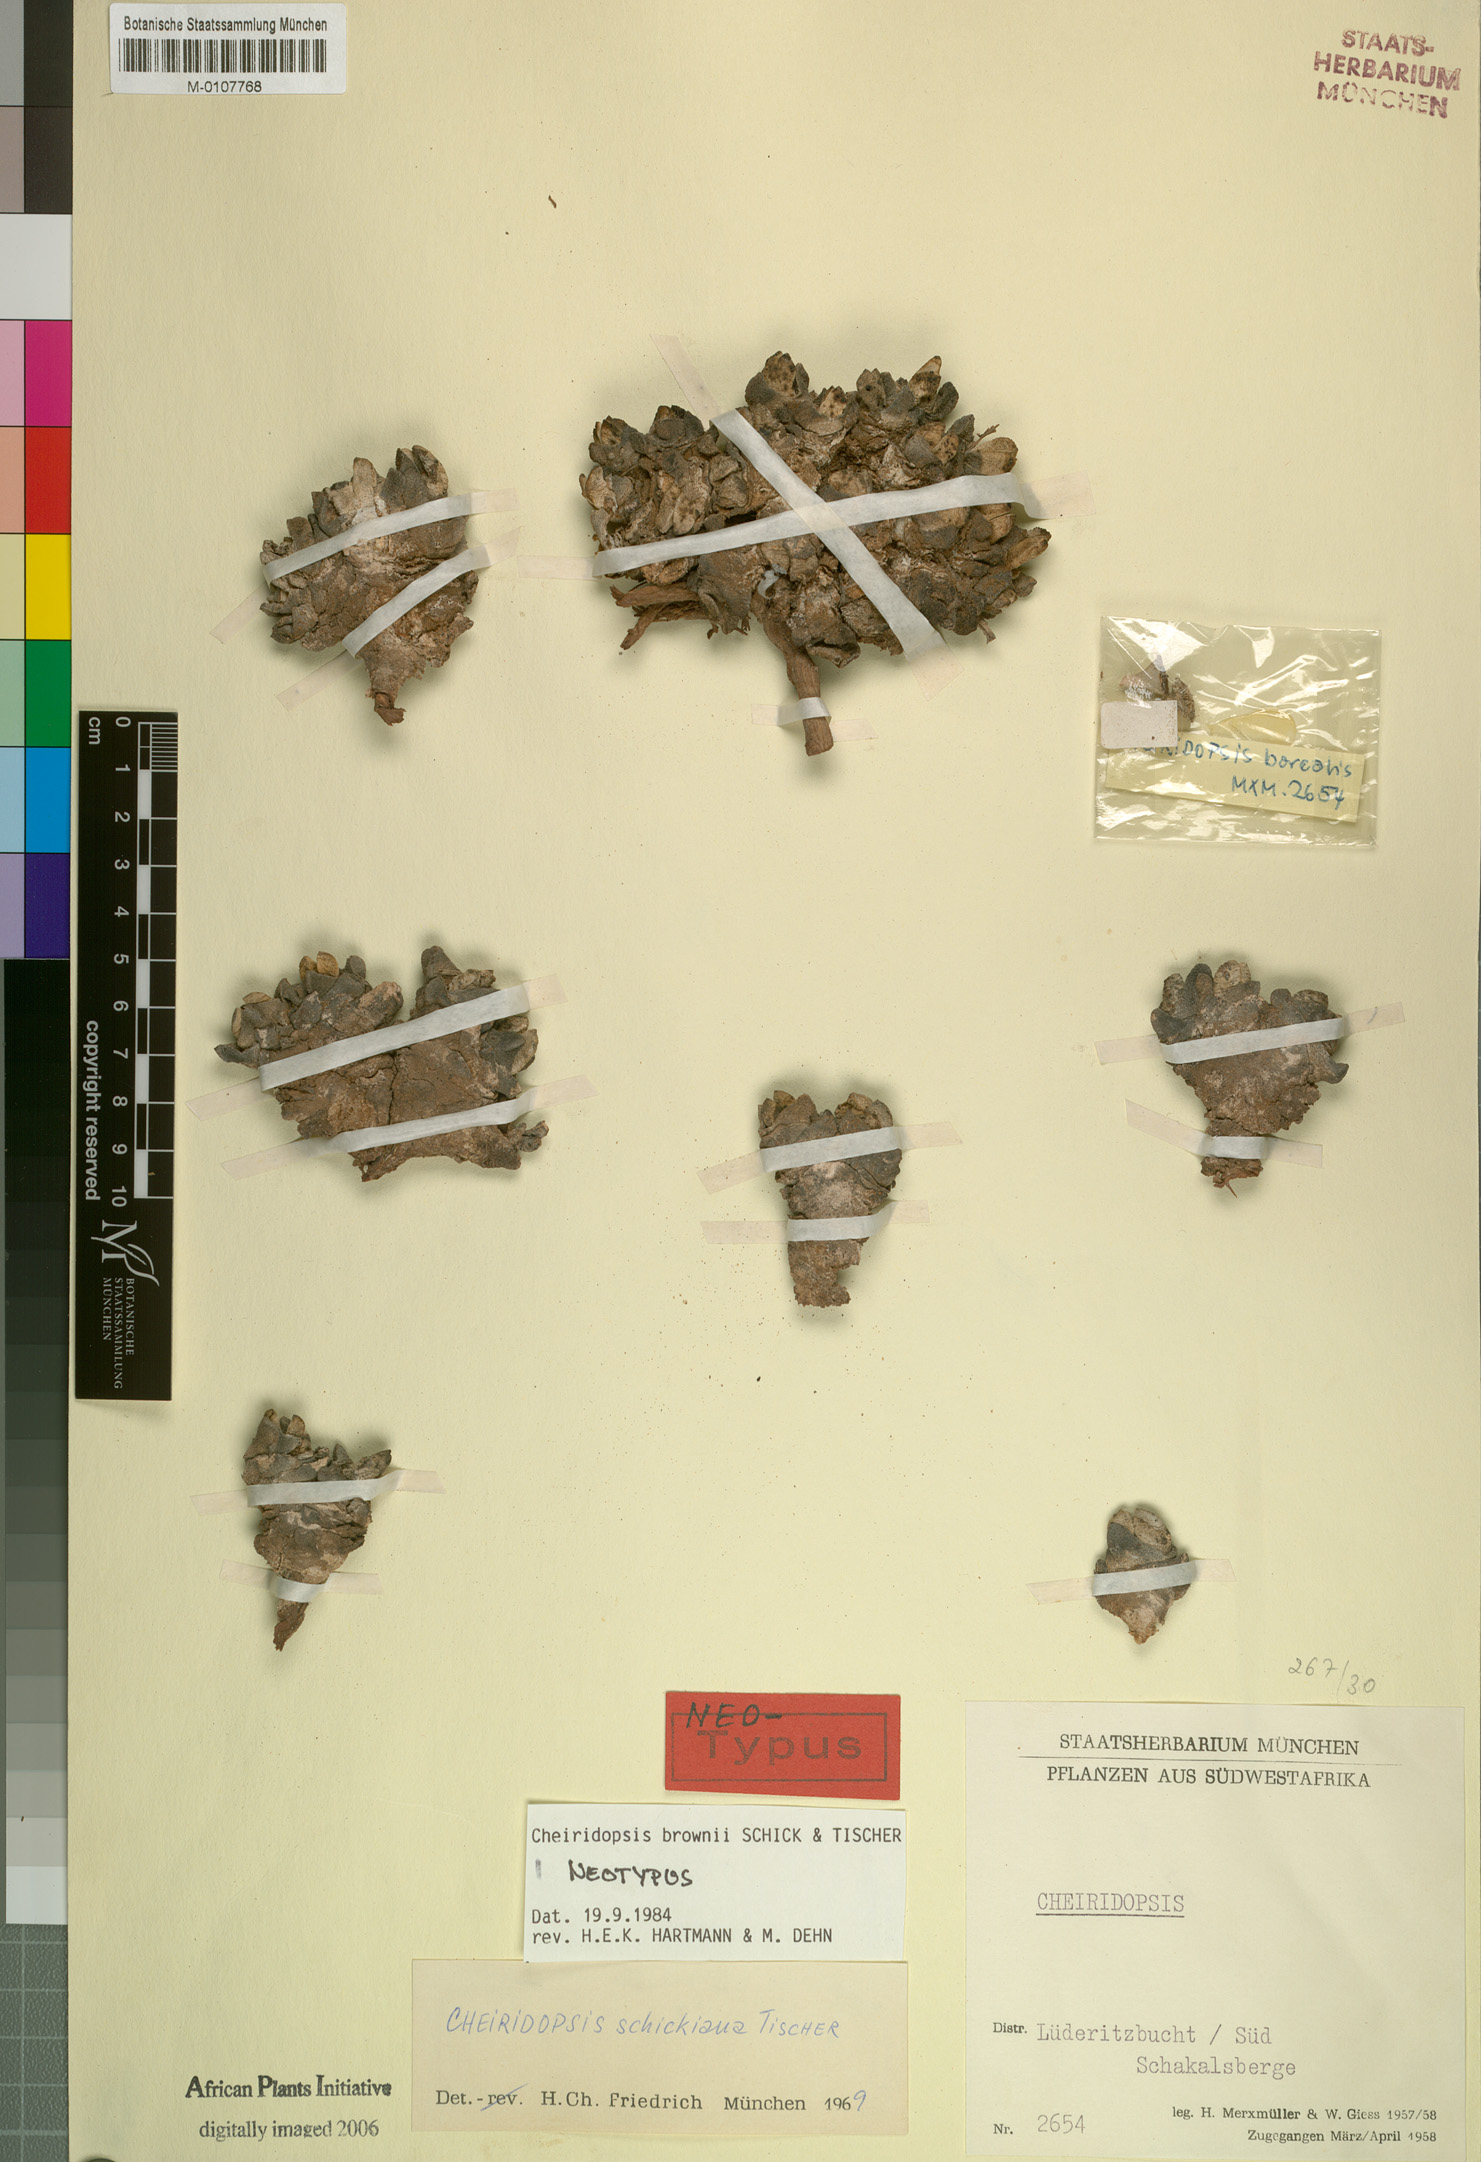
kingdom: Plantae
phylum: Tracheophyta
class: Magnoliopsida
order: Caryophyllales
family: Aizoaceae
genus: Cheiridopsis
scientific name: Cheiridopsis brownii
